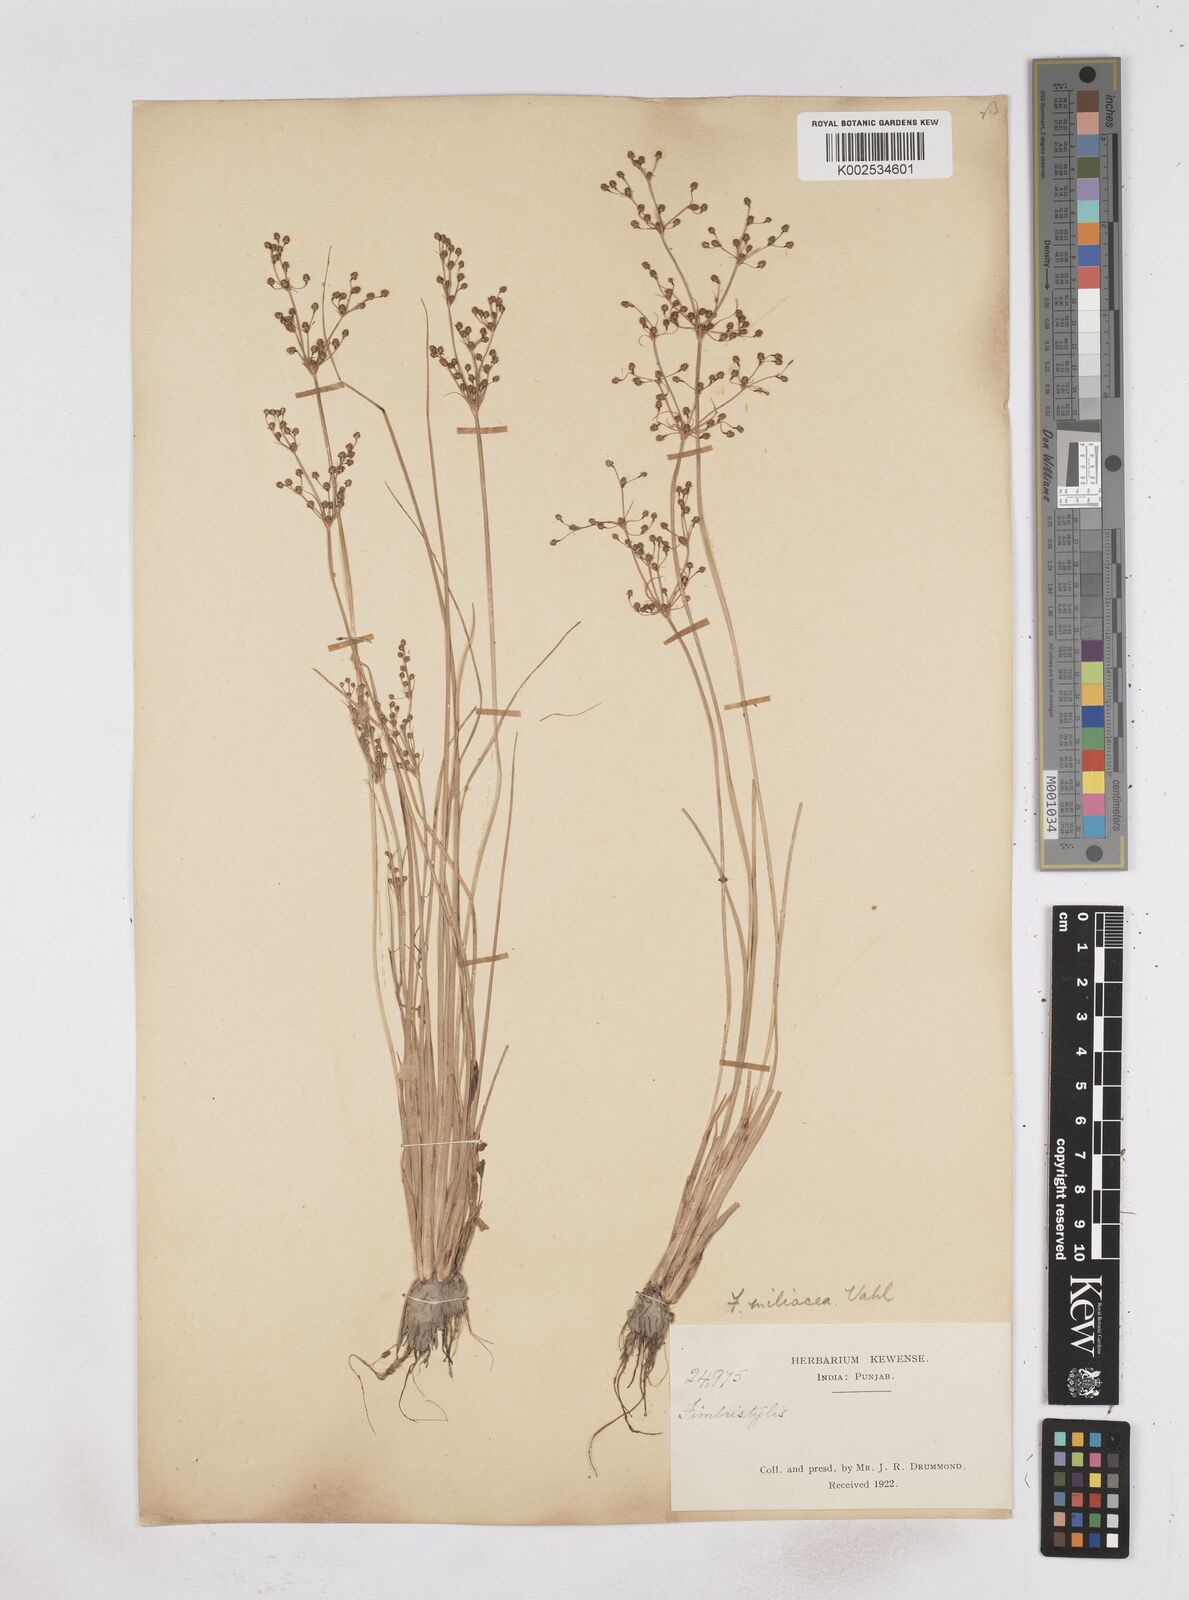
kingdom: Plantae
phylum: Tracheophyta
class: Liliopsida
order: Poales
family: Cyperaceae
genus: Fimbristylis
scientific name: Fimbristylis littoralis
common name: Fimbry
